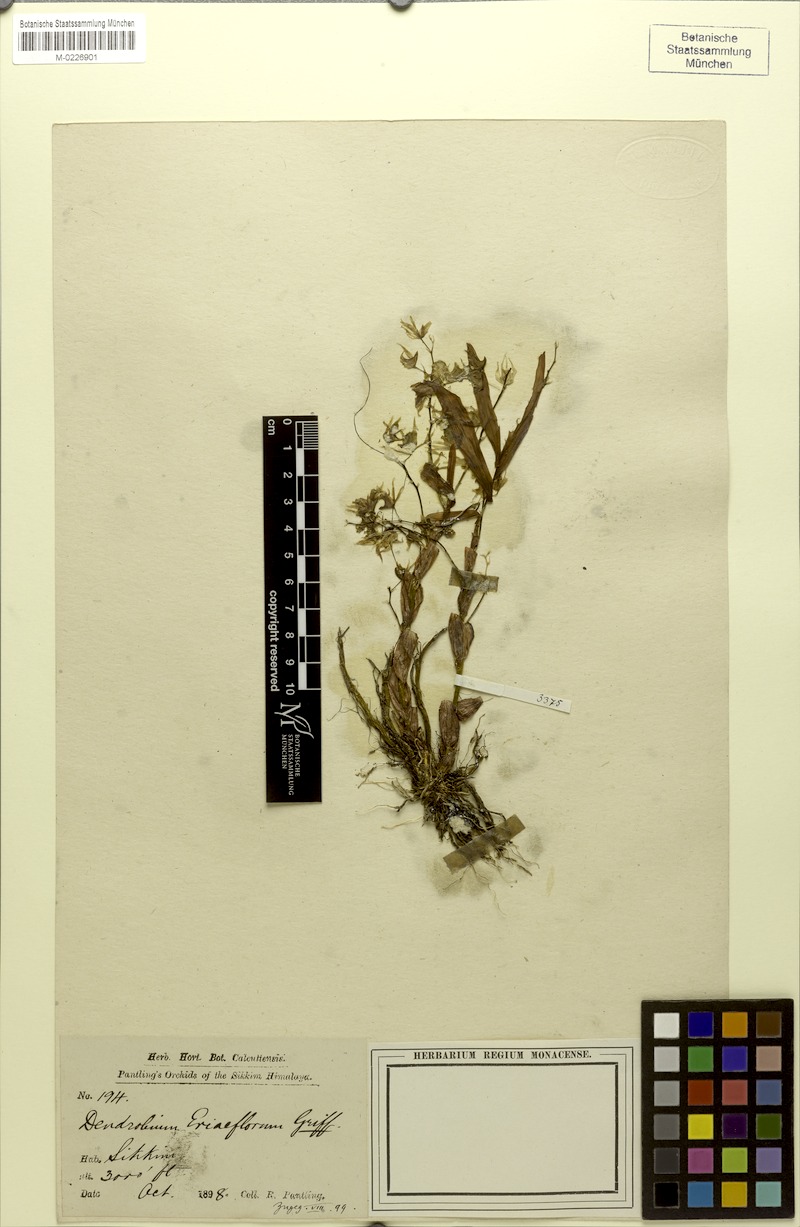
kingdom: Plantae
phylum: Tracheophyta
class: Liliopsida
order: Asparagales
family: Orchidaceae
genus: Dendrobium
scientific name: Dendrobium eriiflorum
